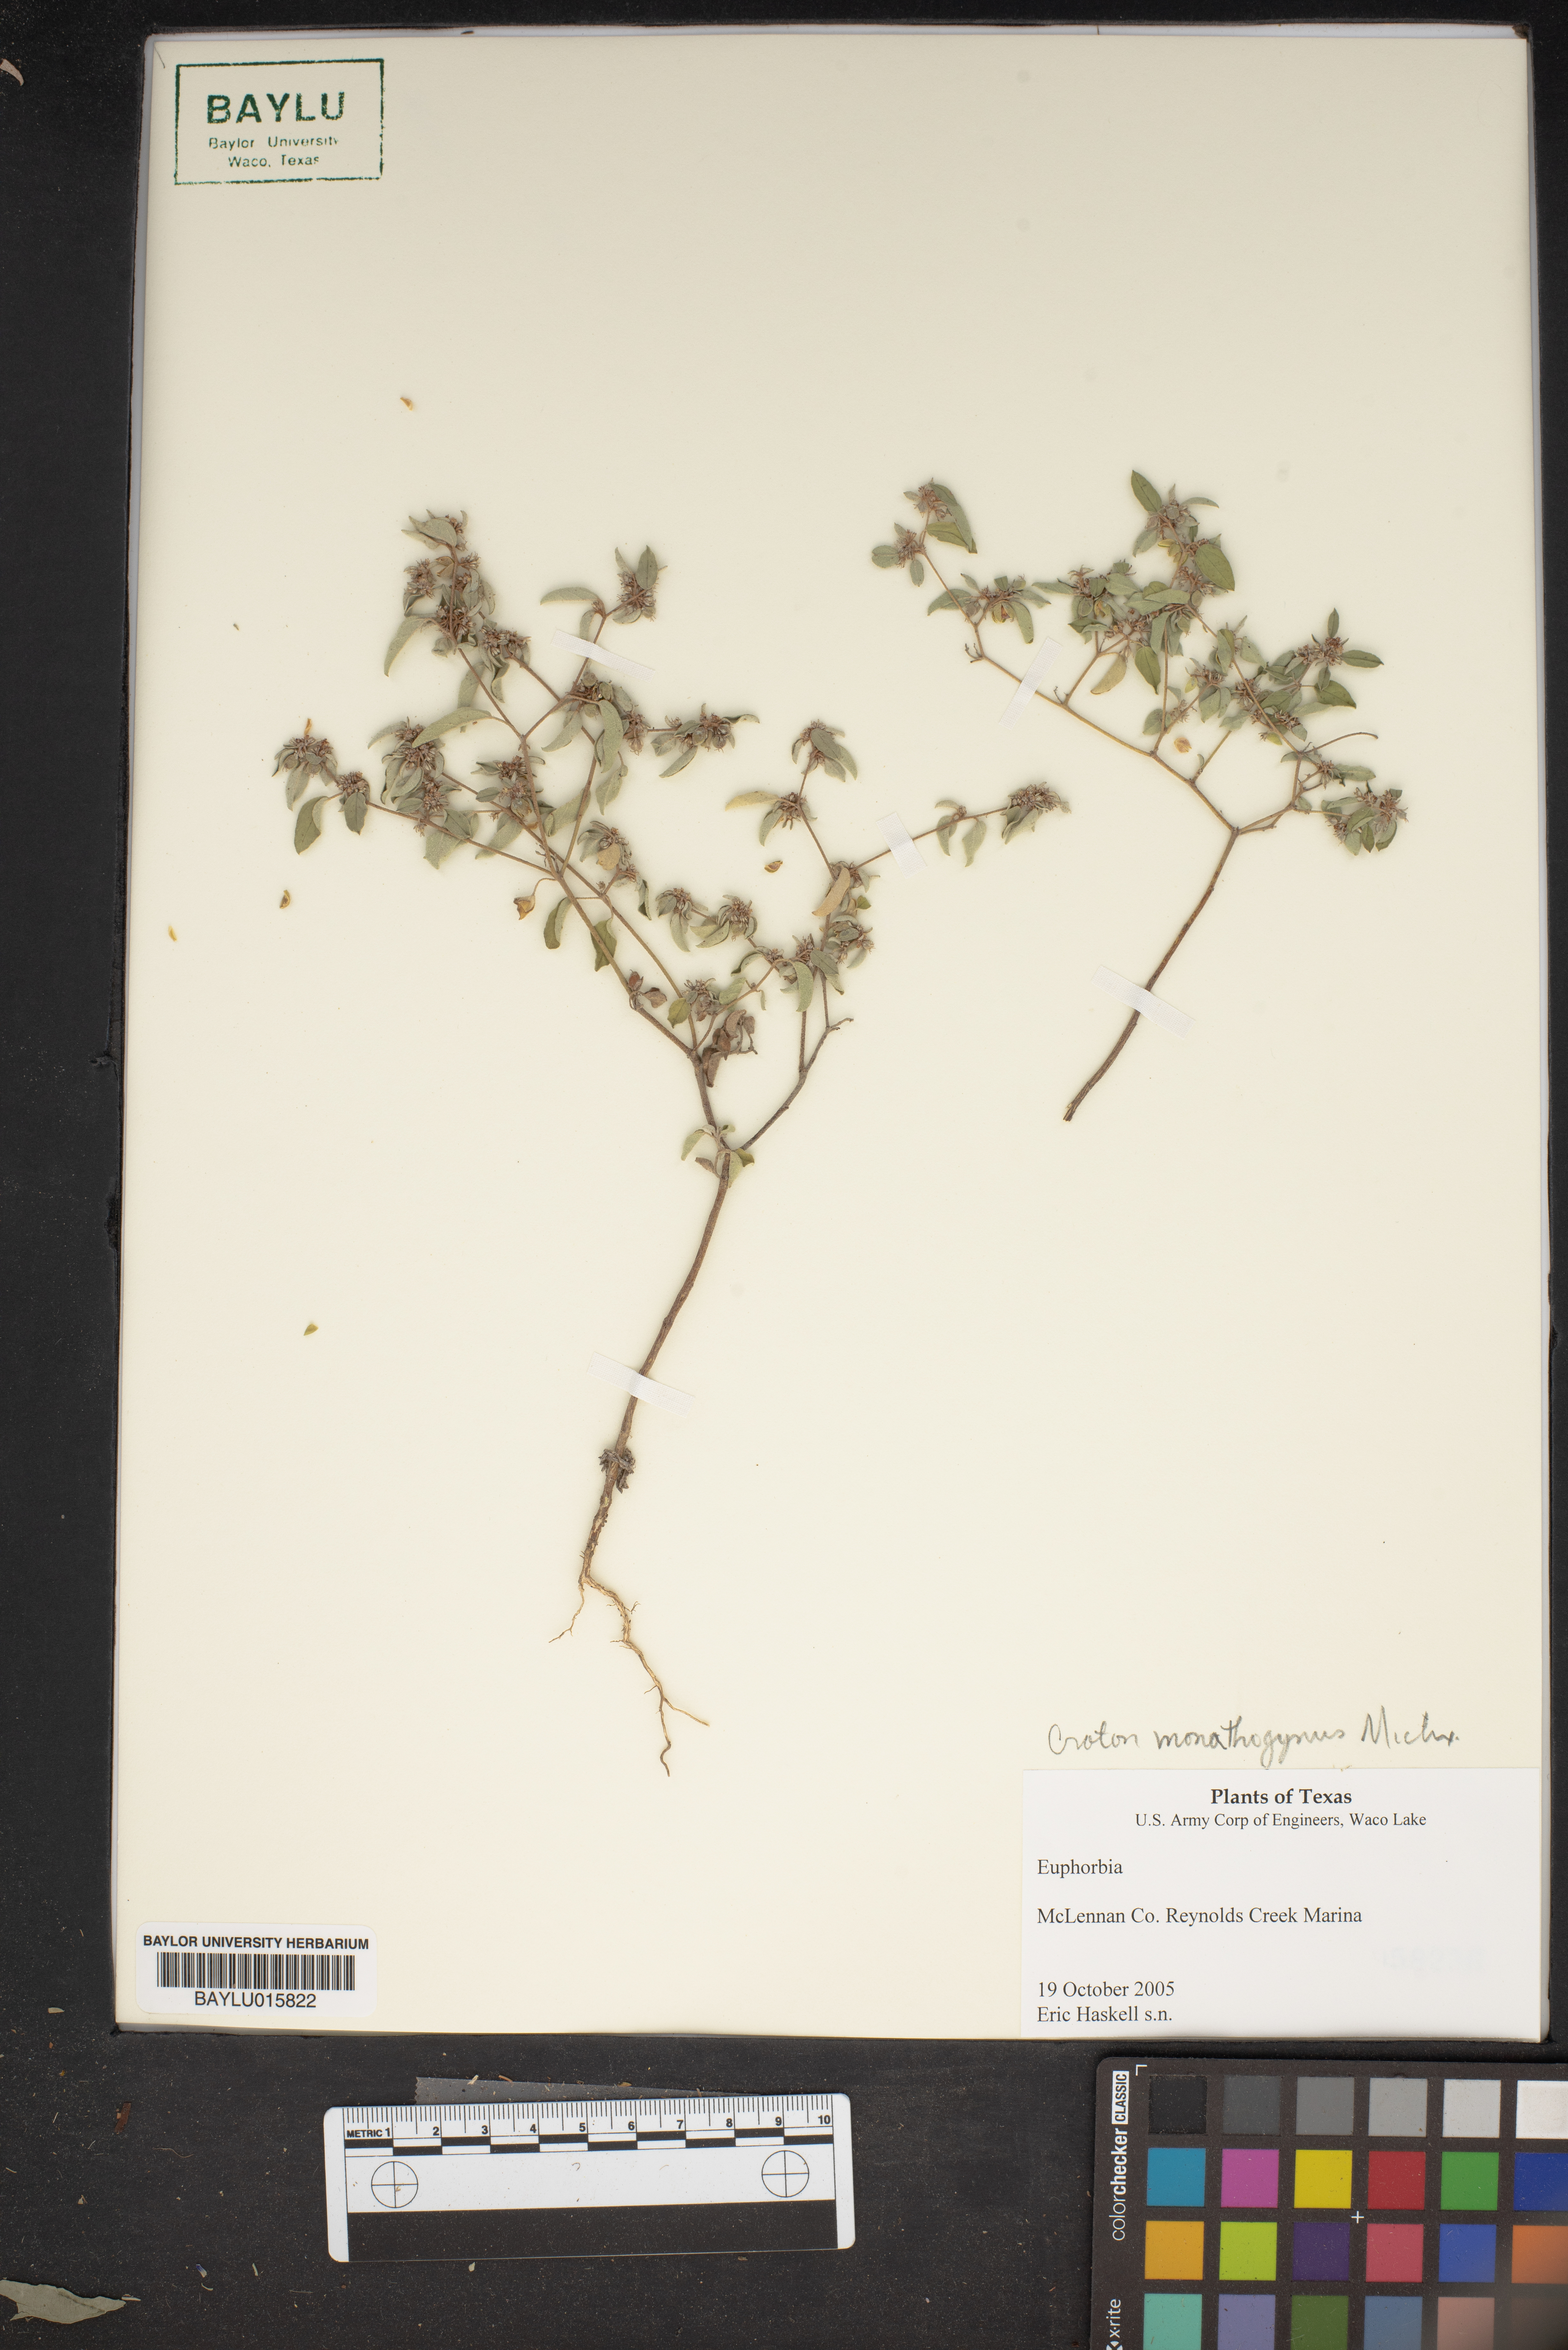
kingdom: Plantae
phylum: Tracheophyta
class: Magnoliopsida
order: Malpighiales
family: Euphorbiaceae
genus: Croton
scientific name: Croton monanthogynus
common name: One-seed croton
